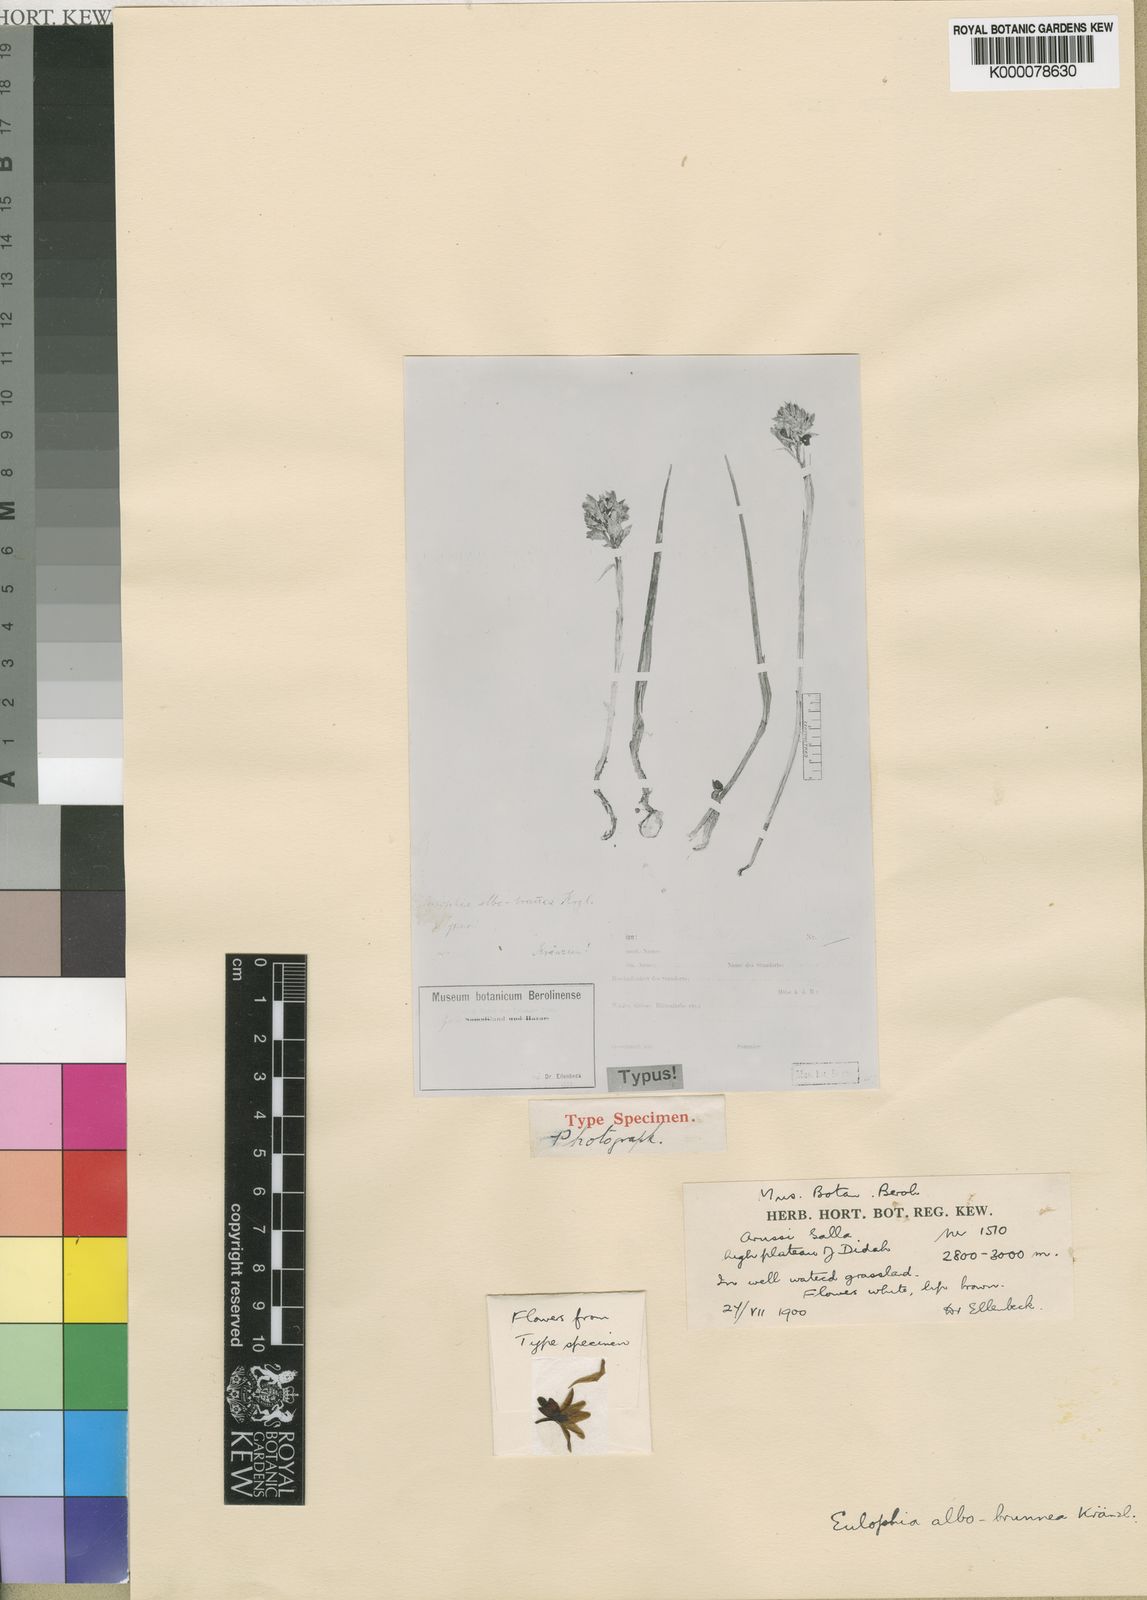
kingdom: Plantae
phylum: Tracheophyta
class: Liliopsida
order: Asparagales
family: Orchidaceae
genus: Eulophia
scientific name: Eulophia albobrunnea
